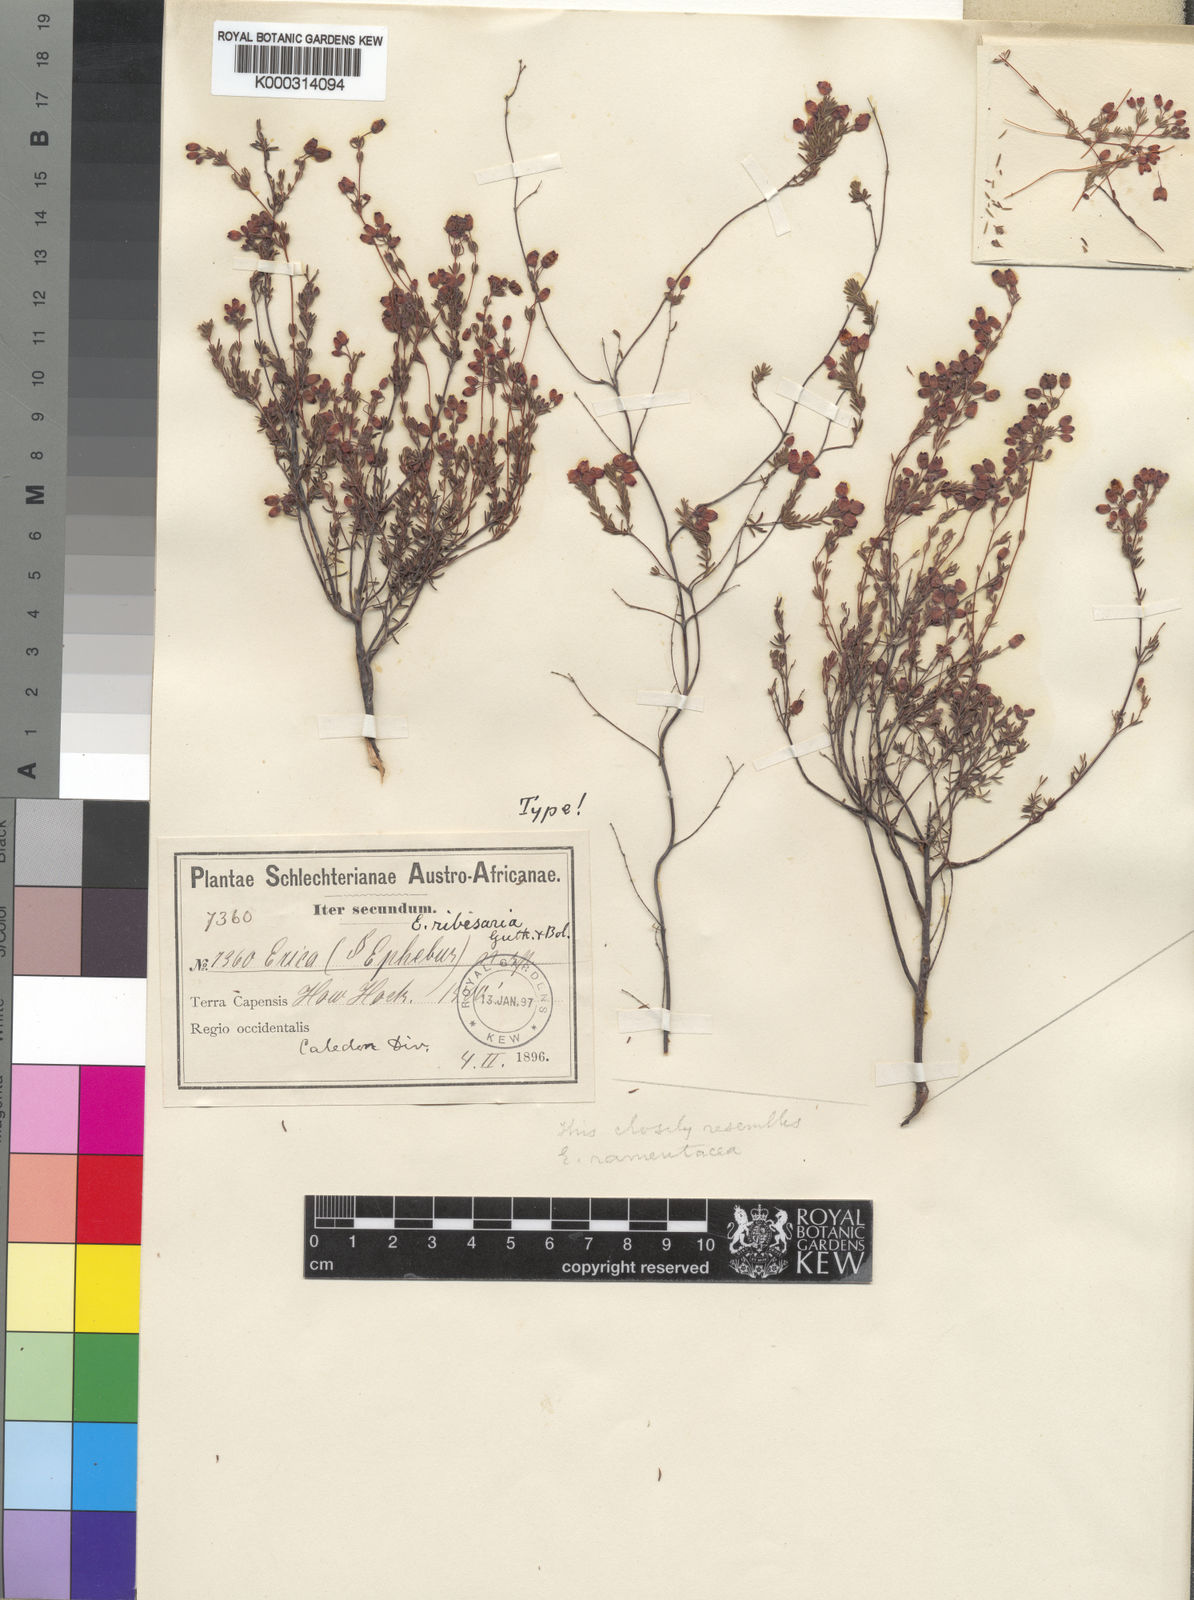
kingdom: Plantae
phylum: Tracheophyta
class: Magnoliopsida
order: Ericales
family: Ericaceae
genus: Erica
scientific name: Erica ribisaria
